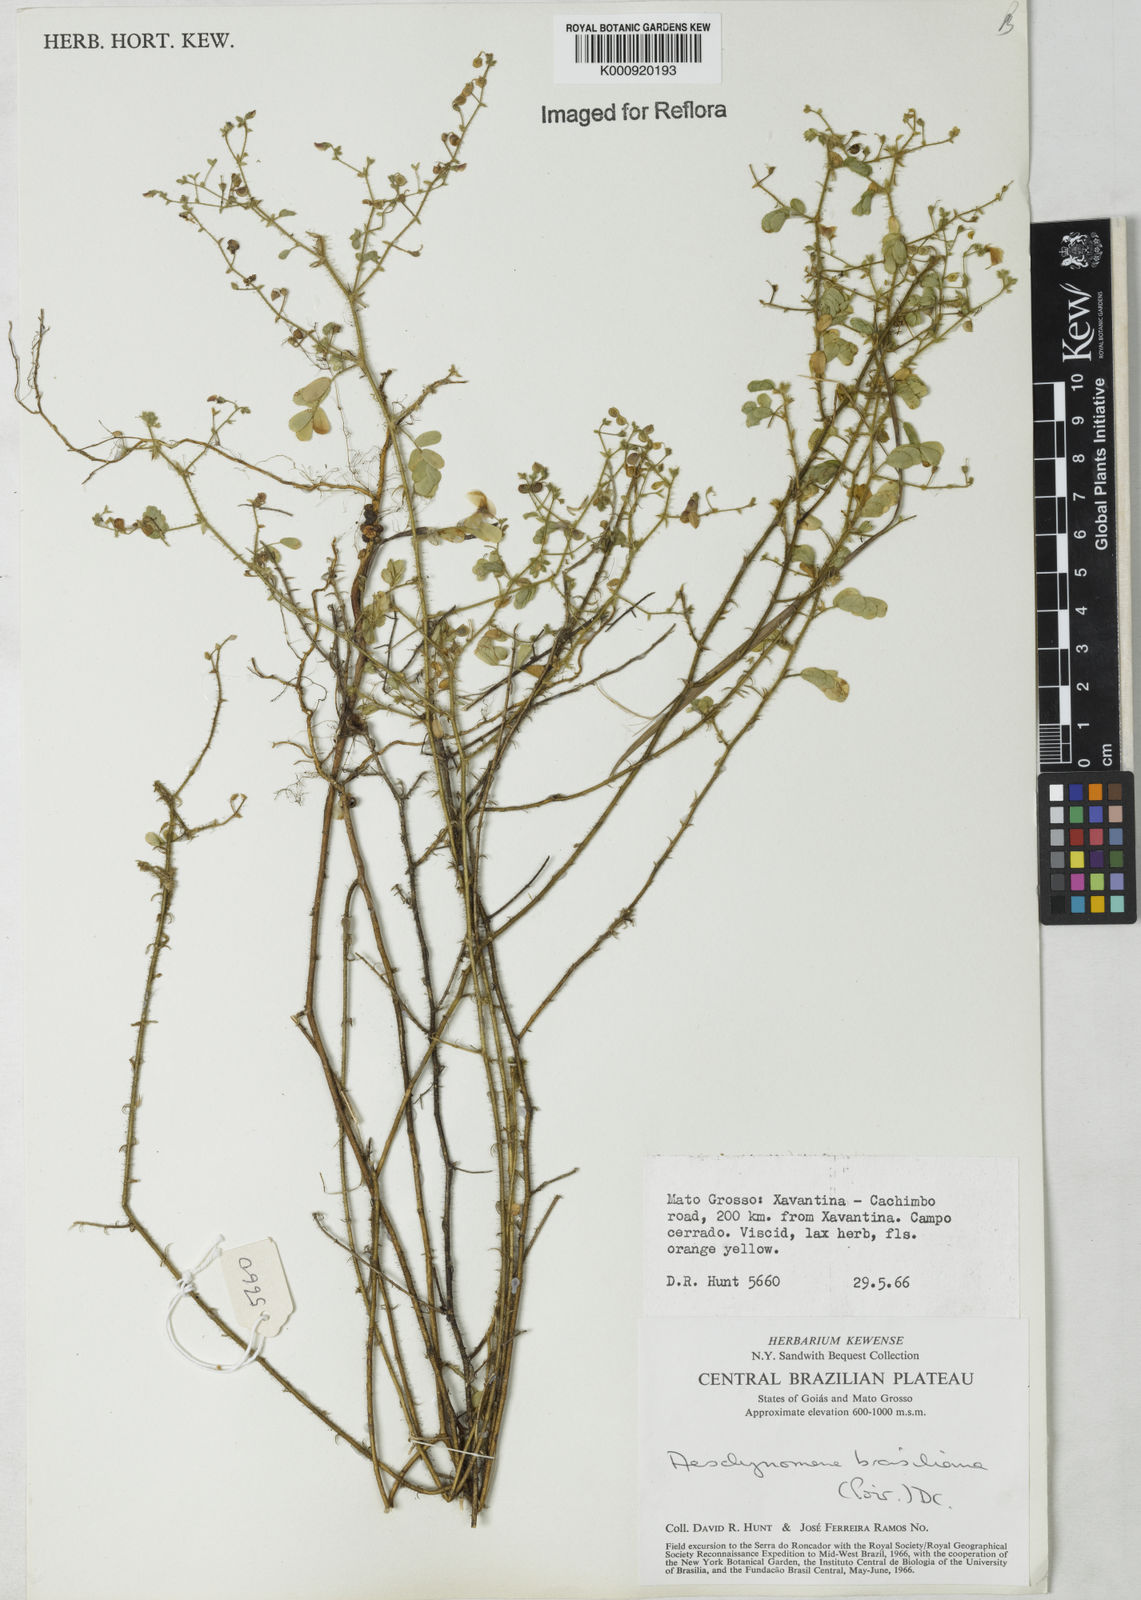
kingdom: Plantae
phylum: Tracheophyta
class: Magnoliopsida
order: Fabales
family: Fabaceae
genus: Ctenodon
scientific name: Ctenodon brasilianus
